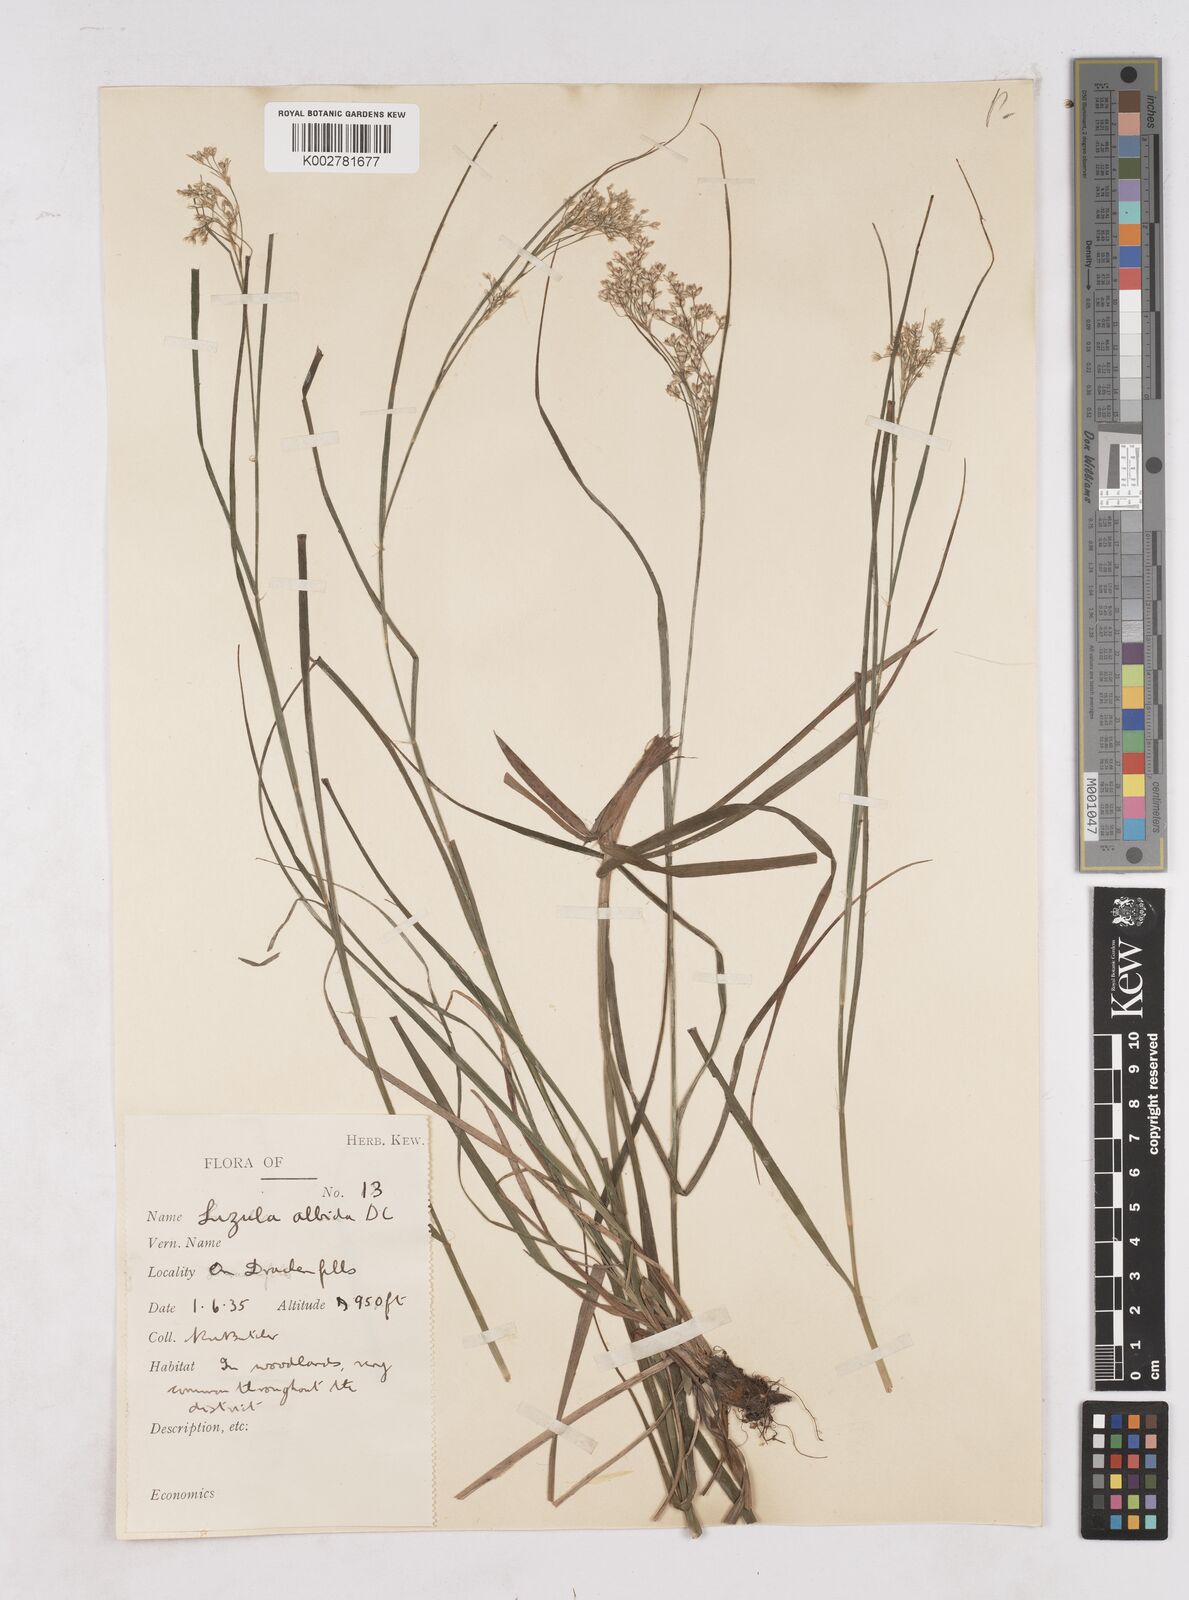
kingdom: Plantae
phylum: Tracheophyta
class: Liliopsida
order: Poales
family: Juncaceae
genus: Luzula
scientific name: Luzula luzuloides
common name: White wood-rush
